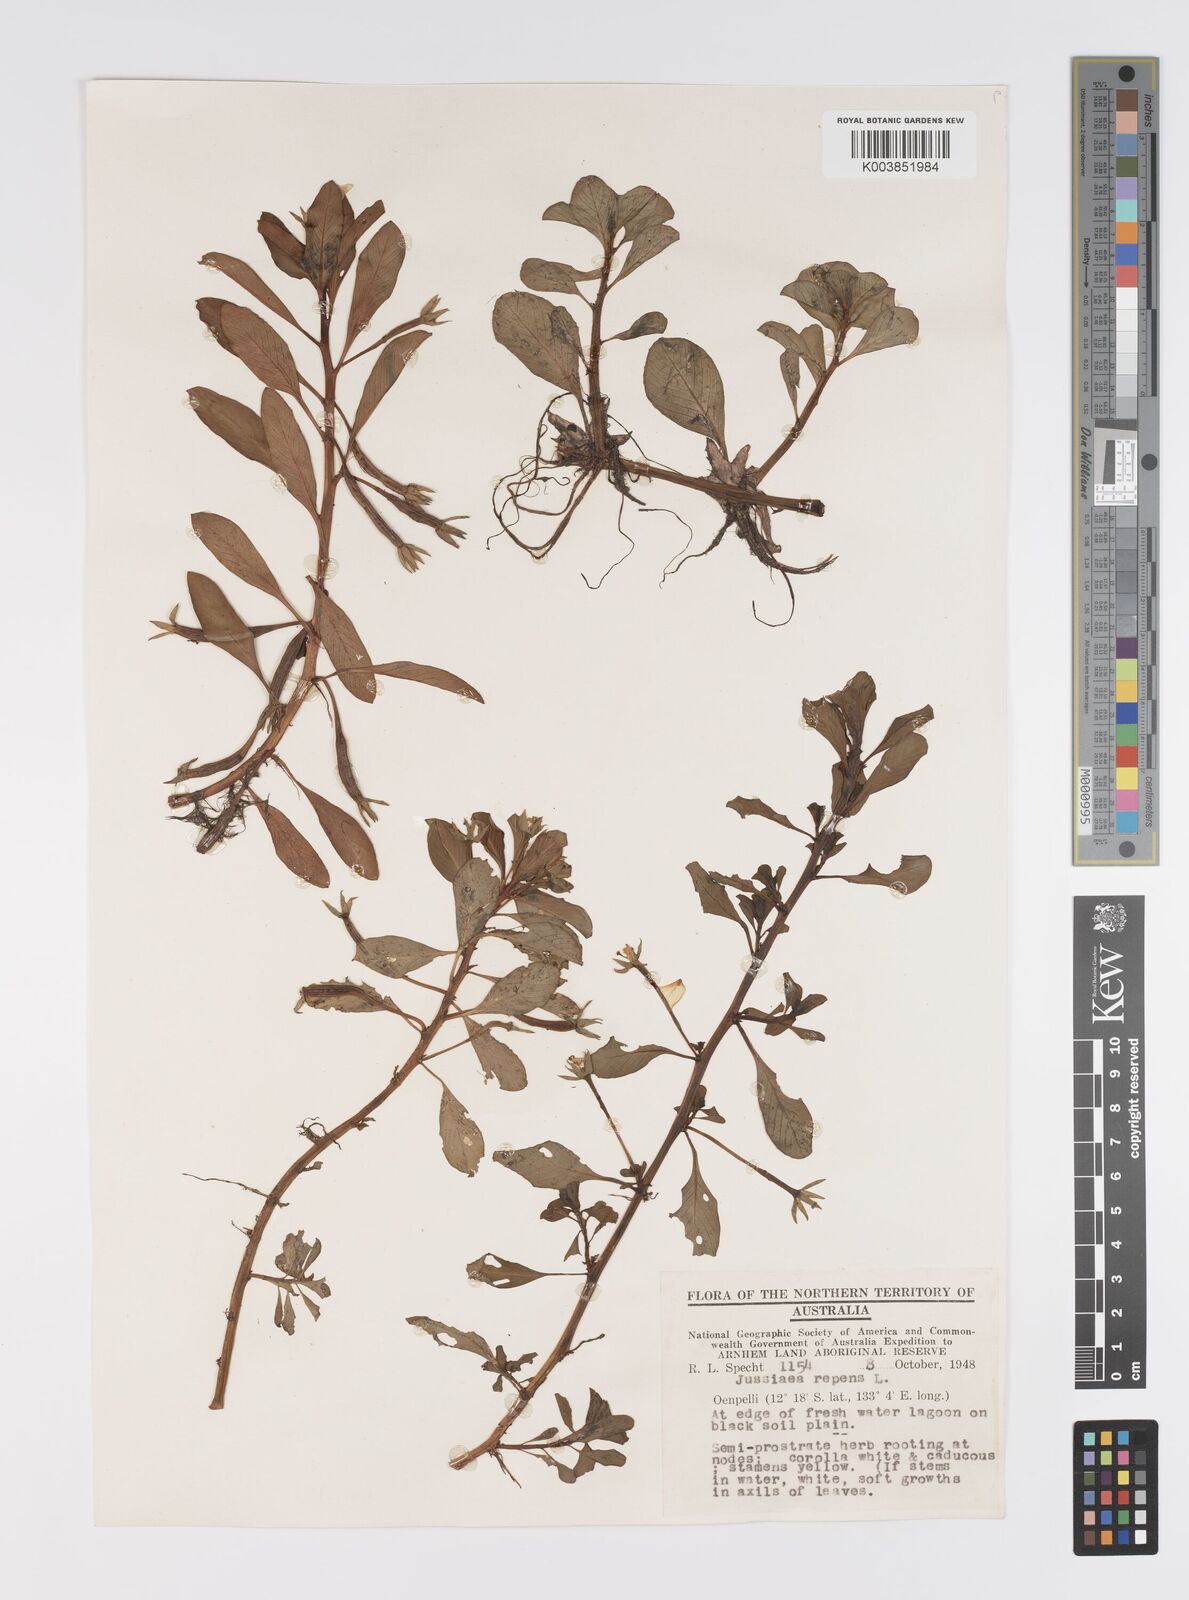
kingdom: Plantae
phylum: Tracheophyta
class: Magnoliopsida
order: Myrtales
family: Onagraceae
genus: Ludwigia
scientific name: Ludwigia adscendens
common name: Creeping water primrose
